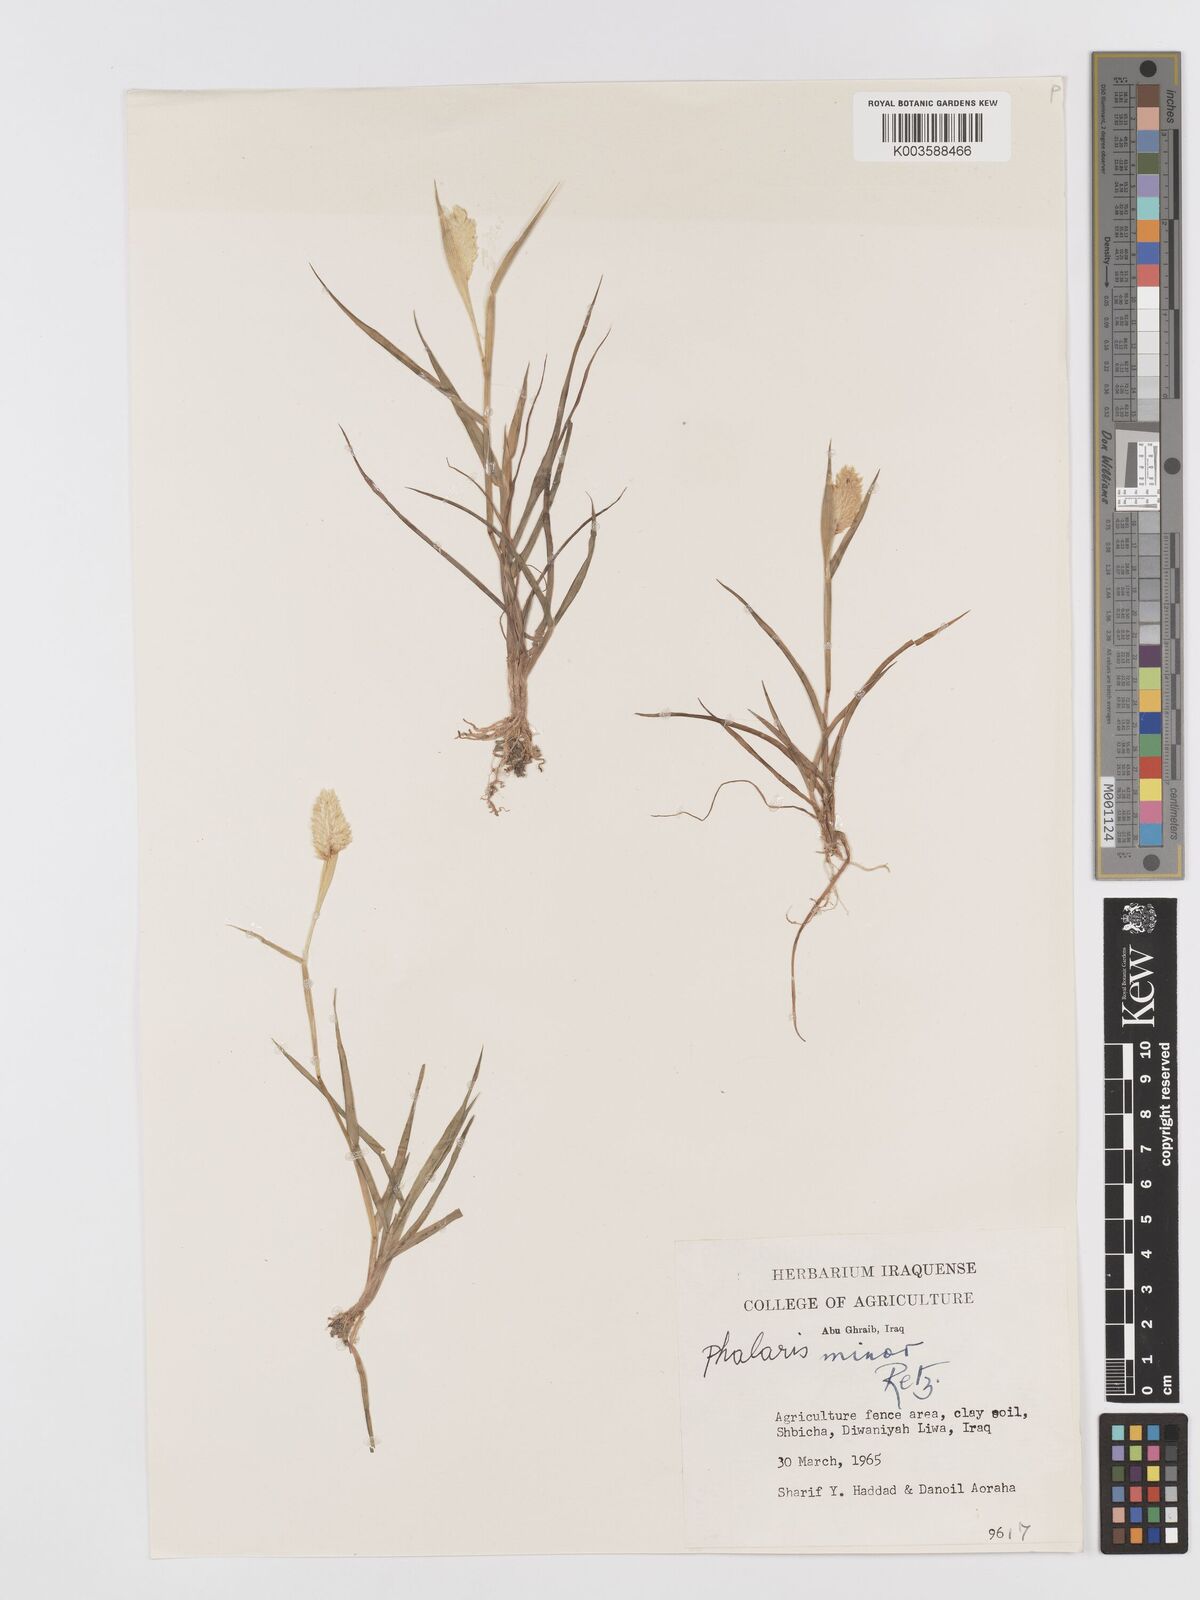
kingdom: Plantae
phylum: Tracheophyta
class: Liliopsida
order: Poales
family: Poaceae
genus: Phalaris
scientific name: Phalaris minor
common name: Littleseed canarygrass
